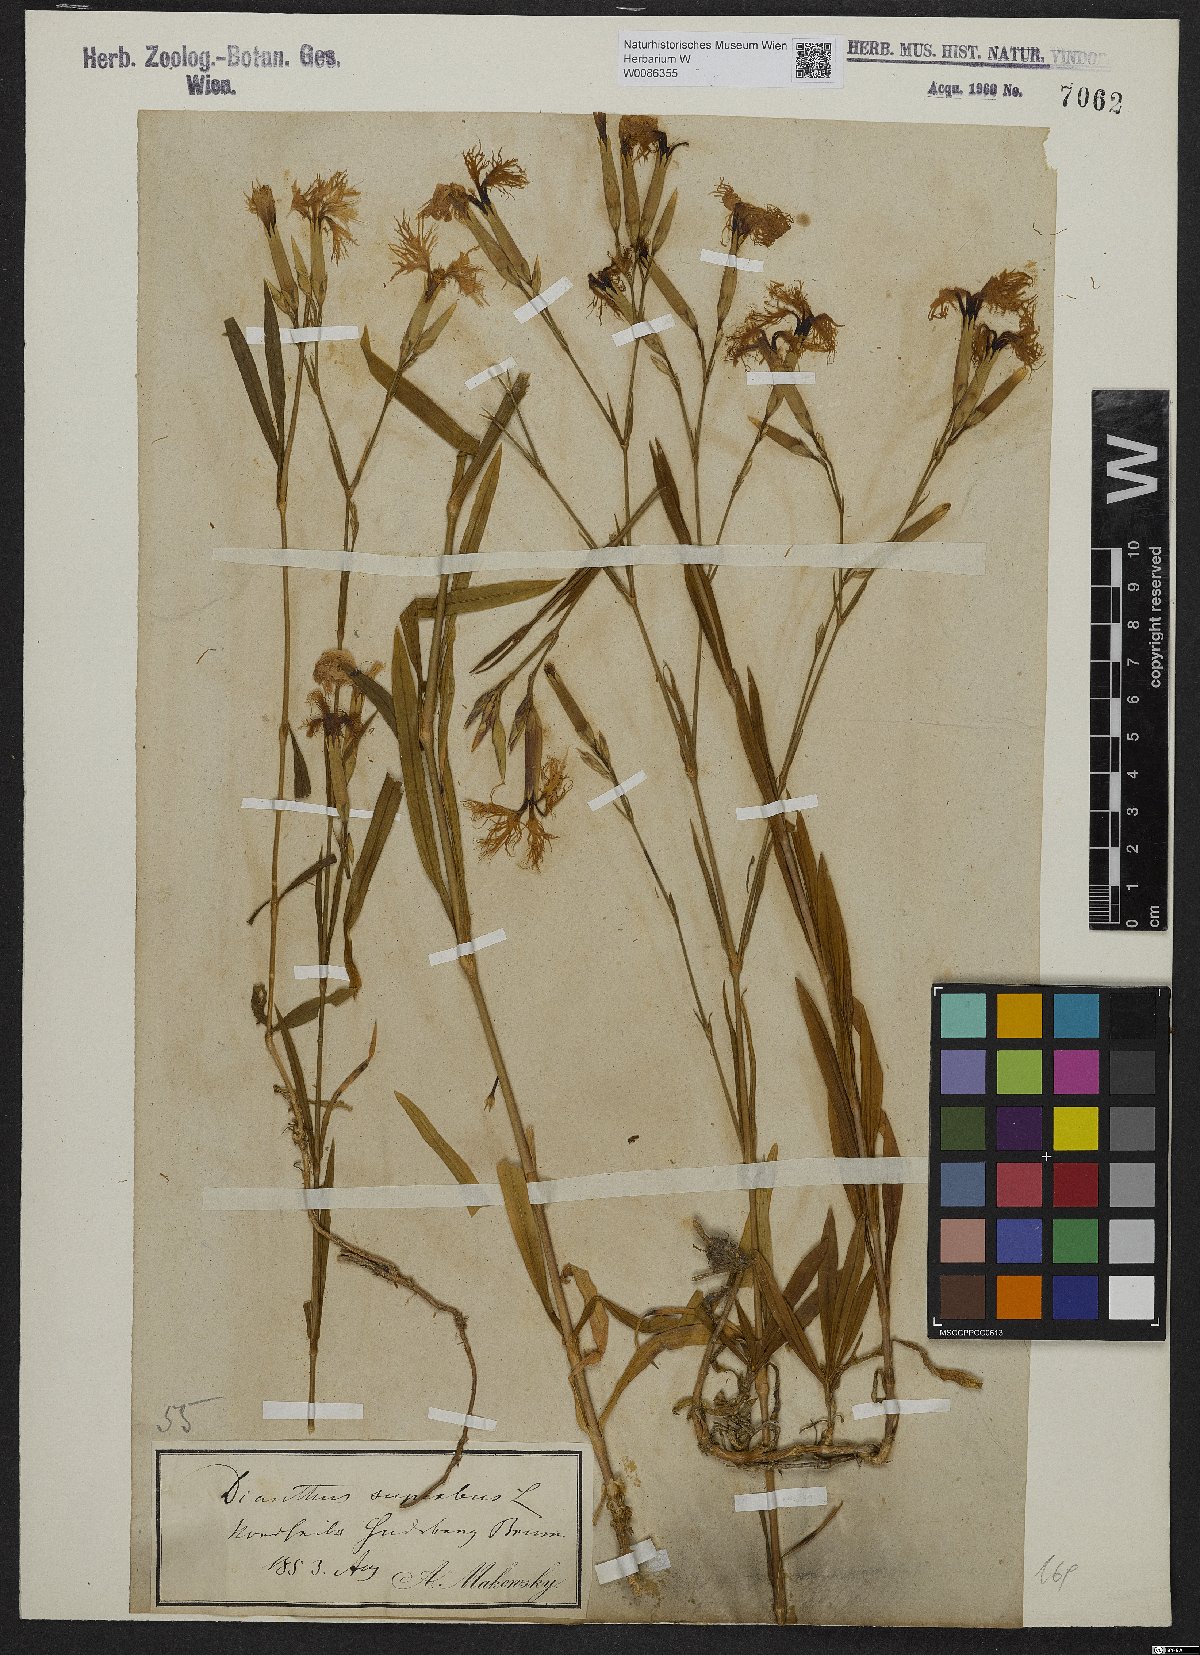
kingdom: Plantae
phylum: Tracheophyta
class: Magnoliopsida
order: Caryophyllales
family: Caryophyllaceae
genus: Dianthus
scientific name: Dianthus superbus
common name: Fringed pink
